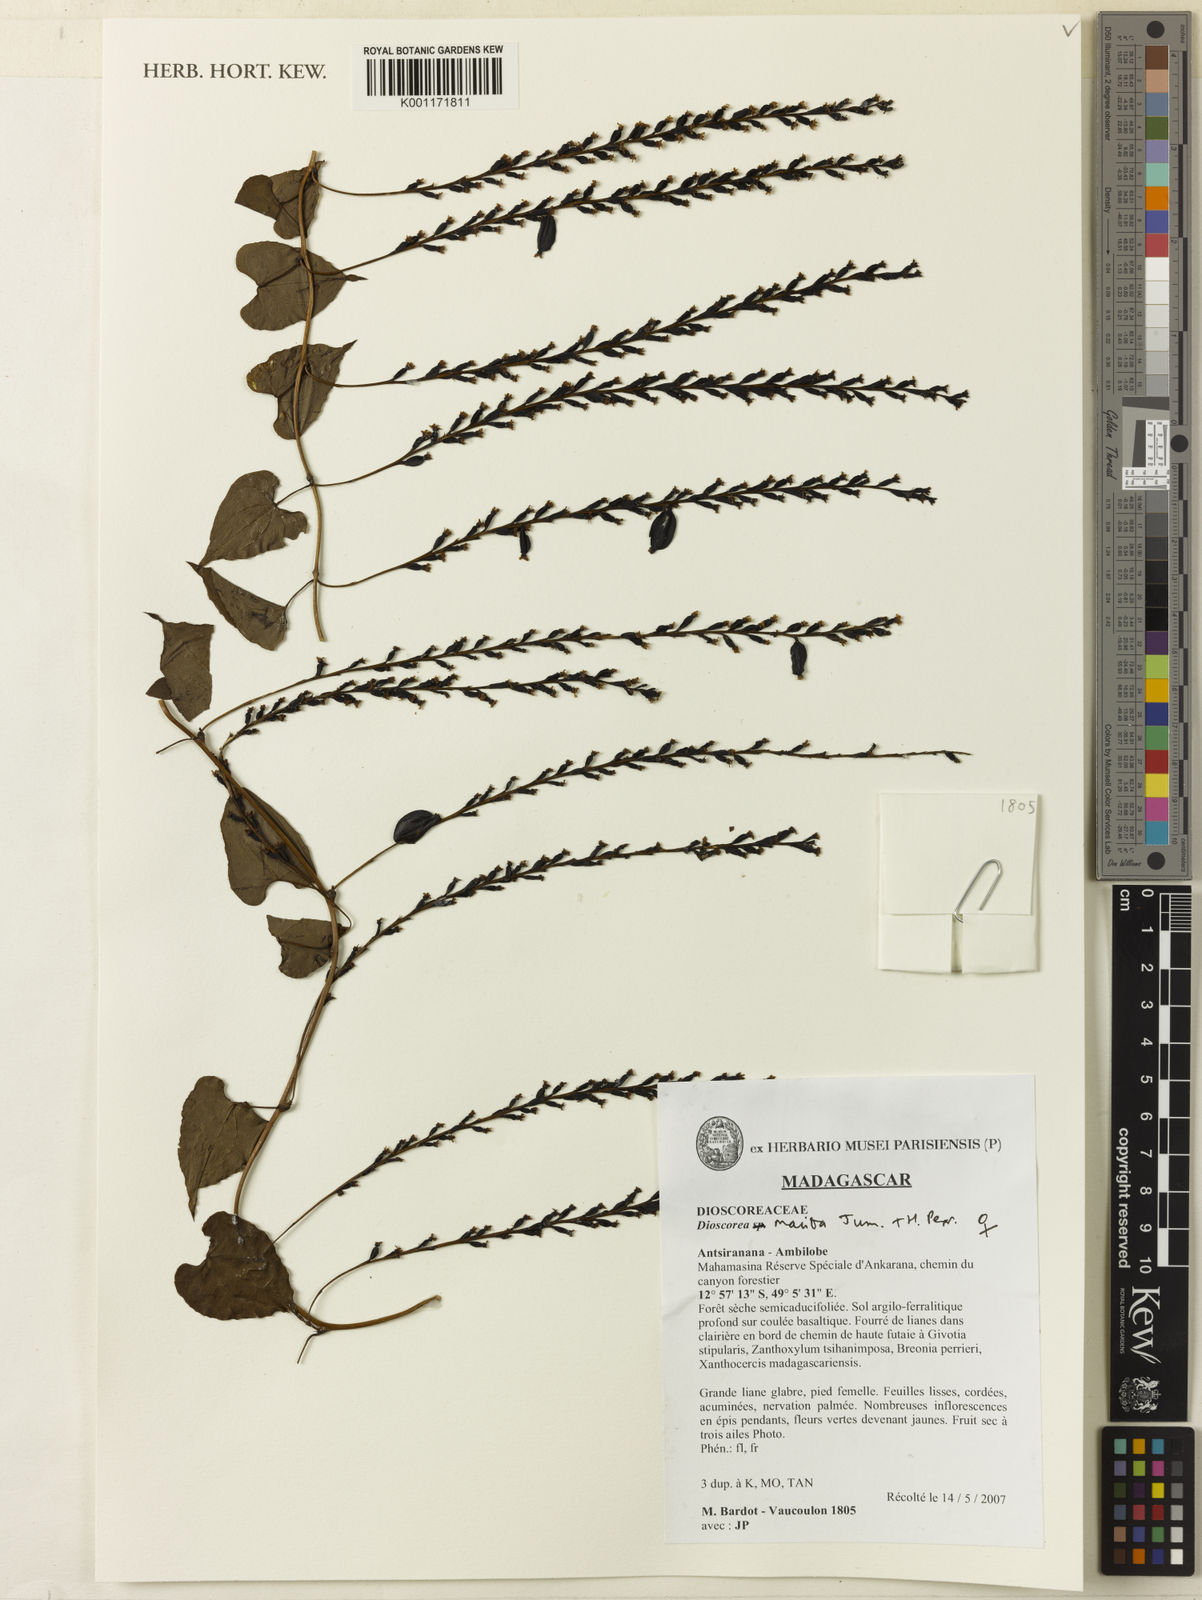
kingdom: Plantae
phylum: Tracheophyta
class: Liliopsida
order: Dioscoreales
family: Dioscoreaceae
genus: Dioscorea
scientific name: Dioscorea maciba
